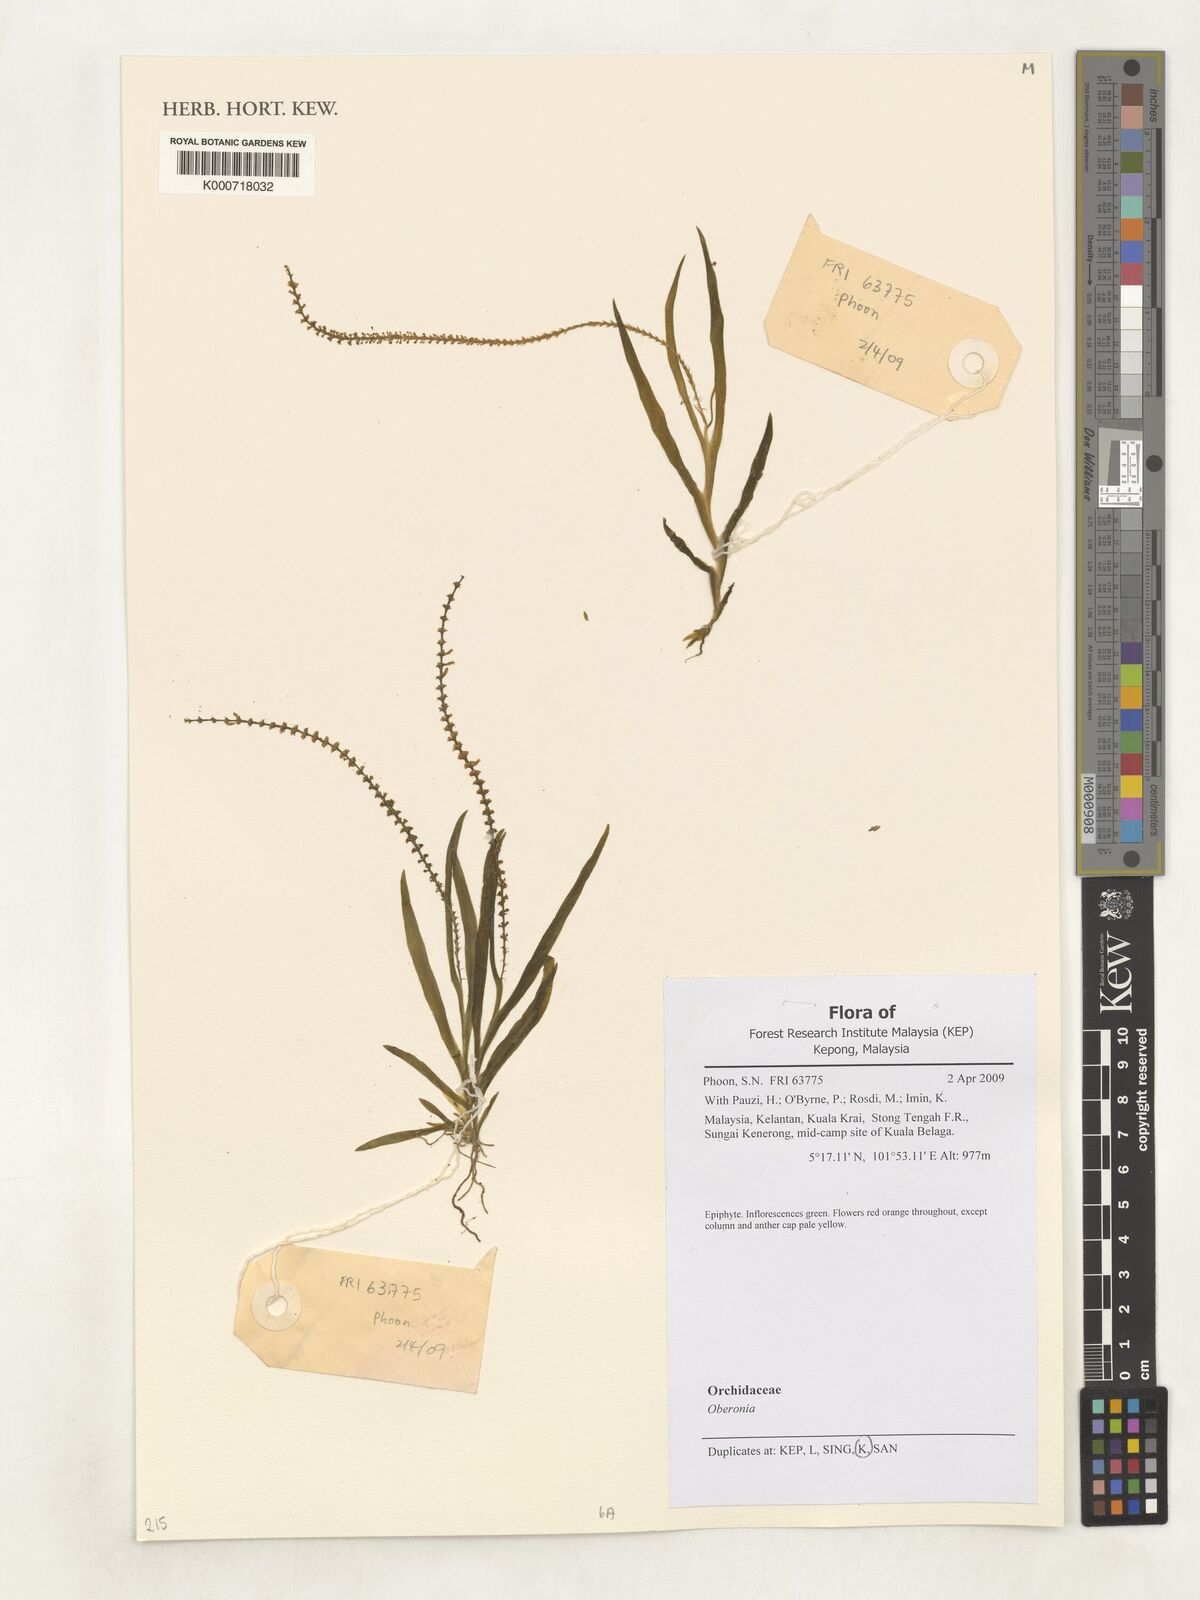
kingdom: Plantae
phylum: Tracheophyta
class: Liliopsida
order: Asparagales
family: Orchidaceae
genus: Oberonia
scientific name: Oberonia
